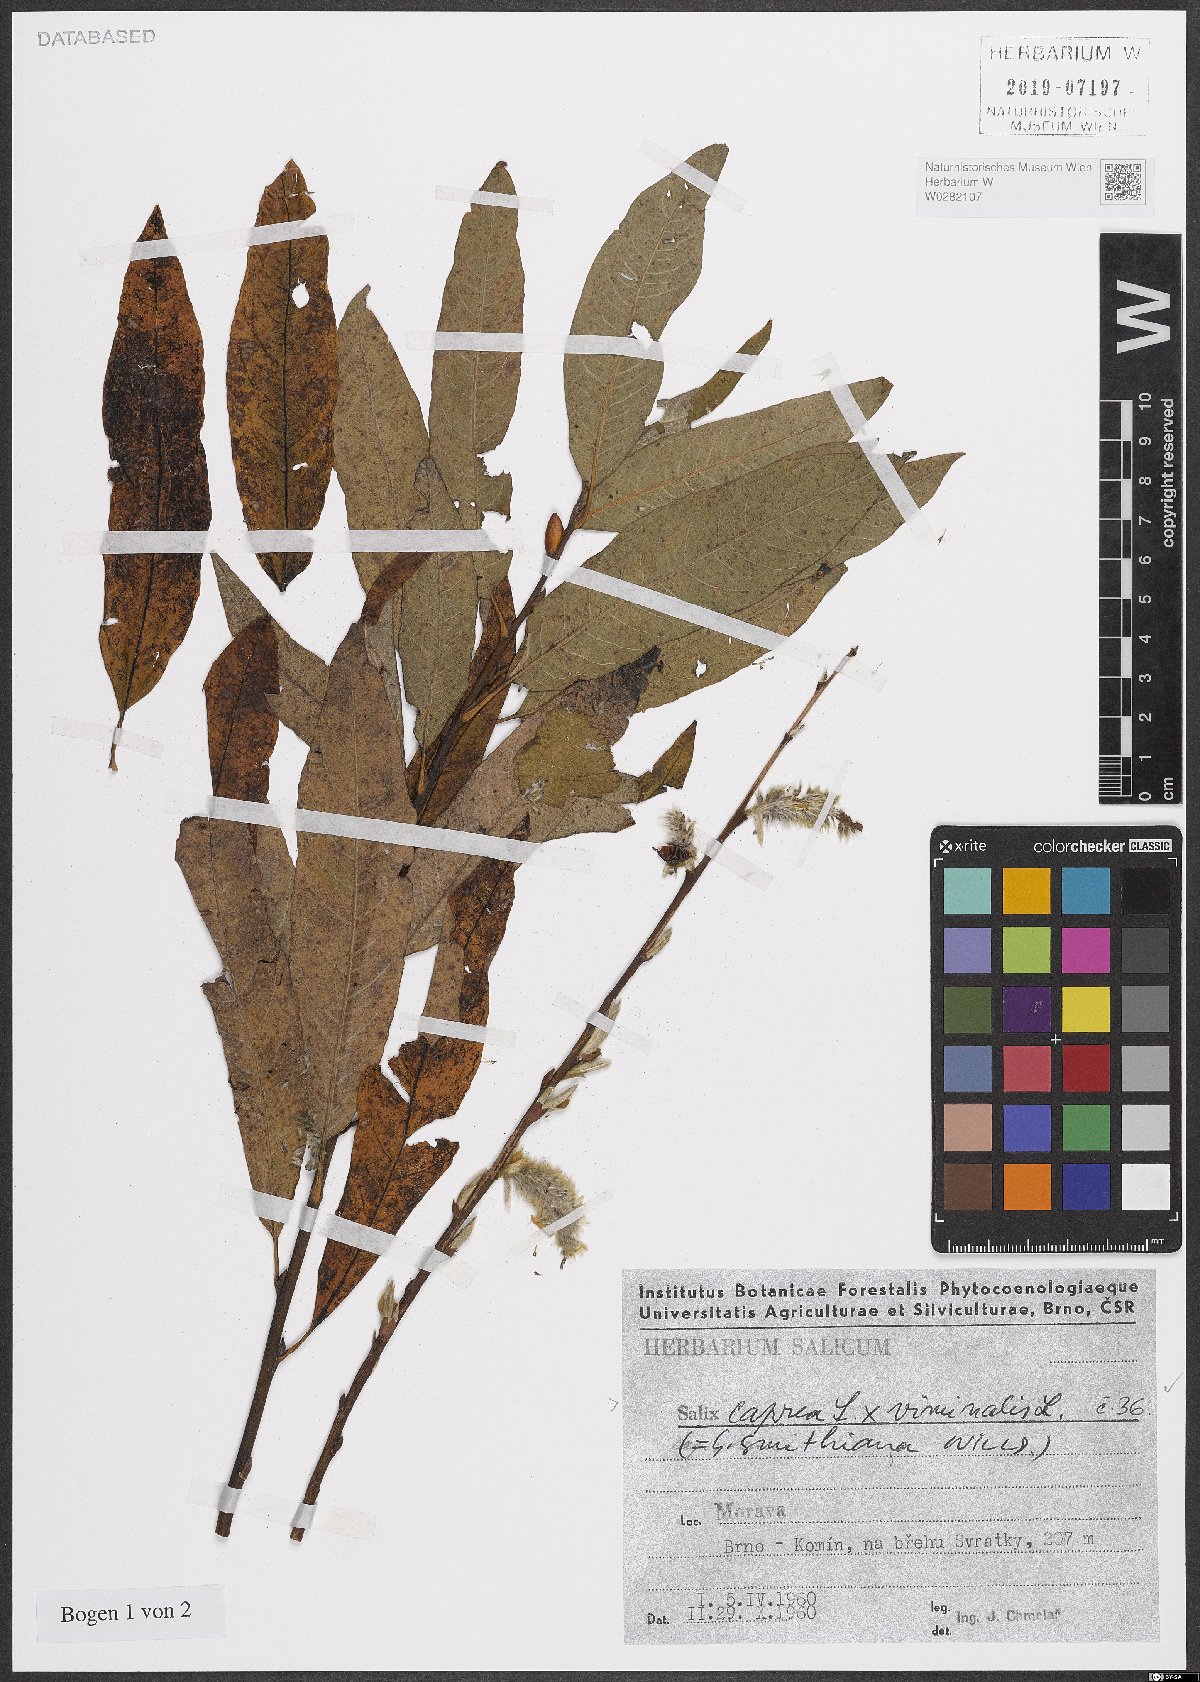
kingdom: Plantae
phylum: Tracheophyta
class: Magnoliopsida
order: Malpighiales
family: Salicaceae
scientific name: Salicaceae
